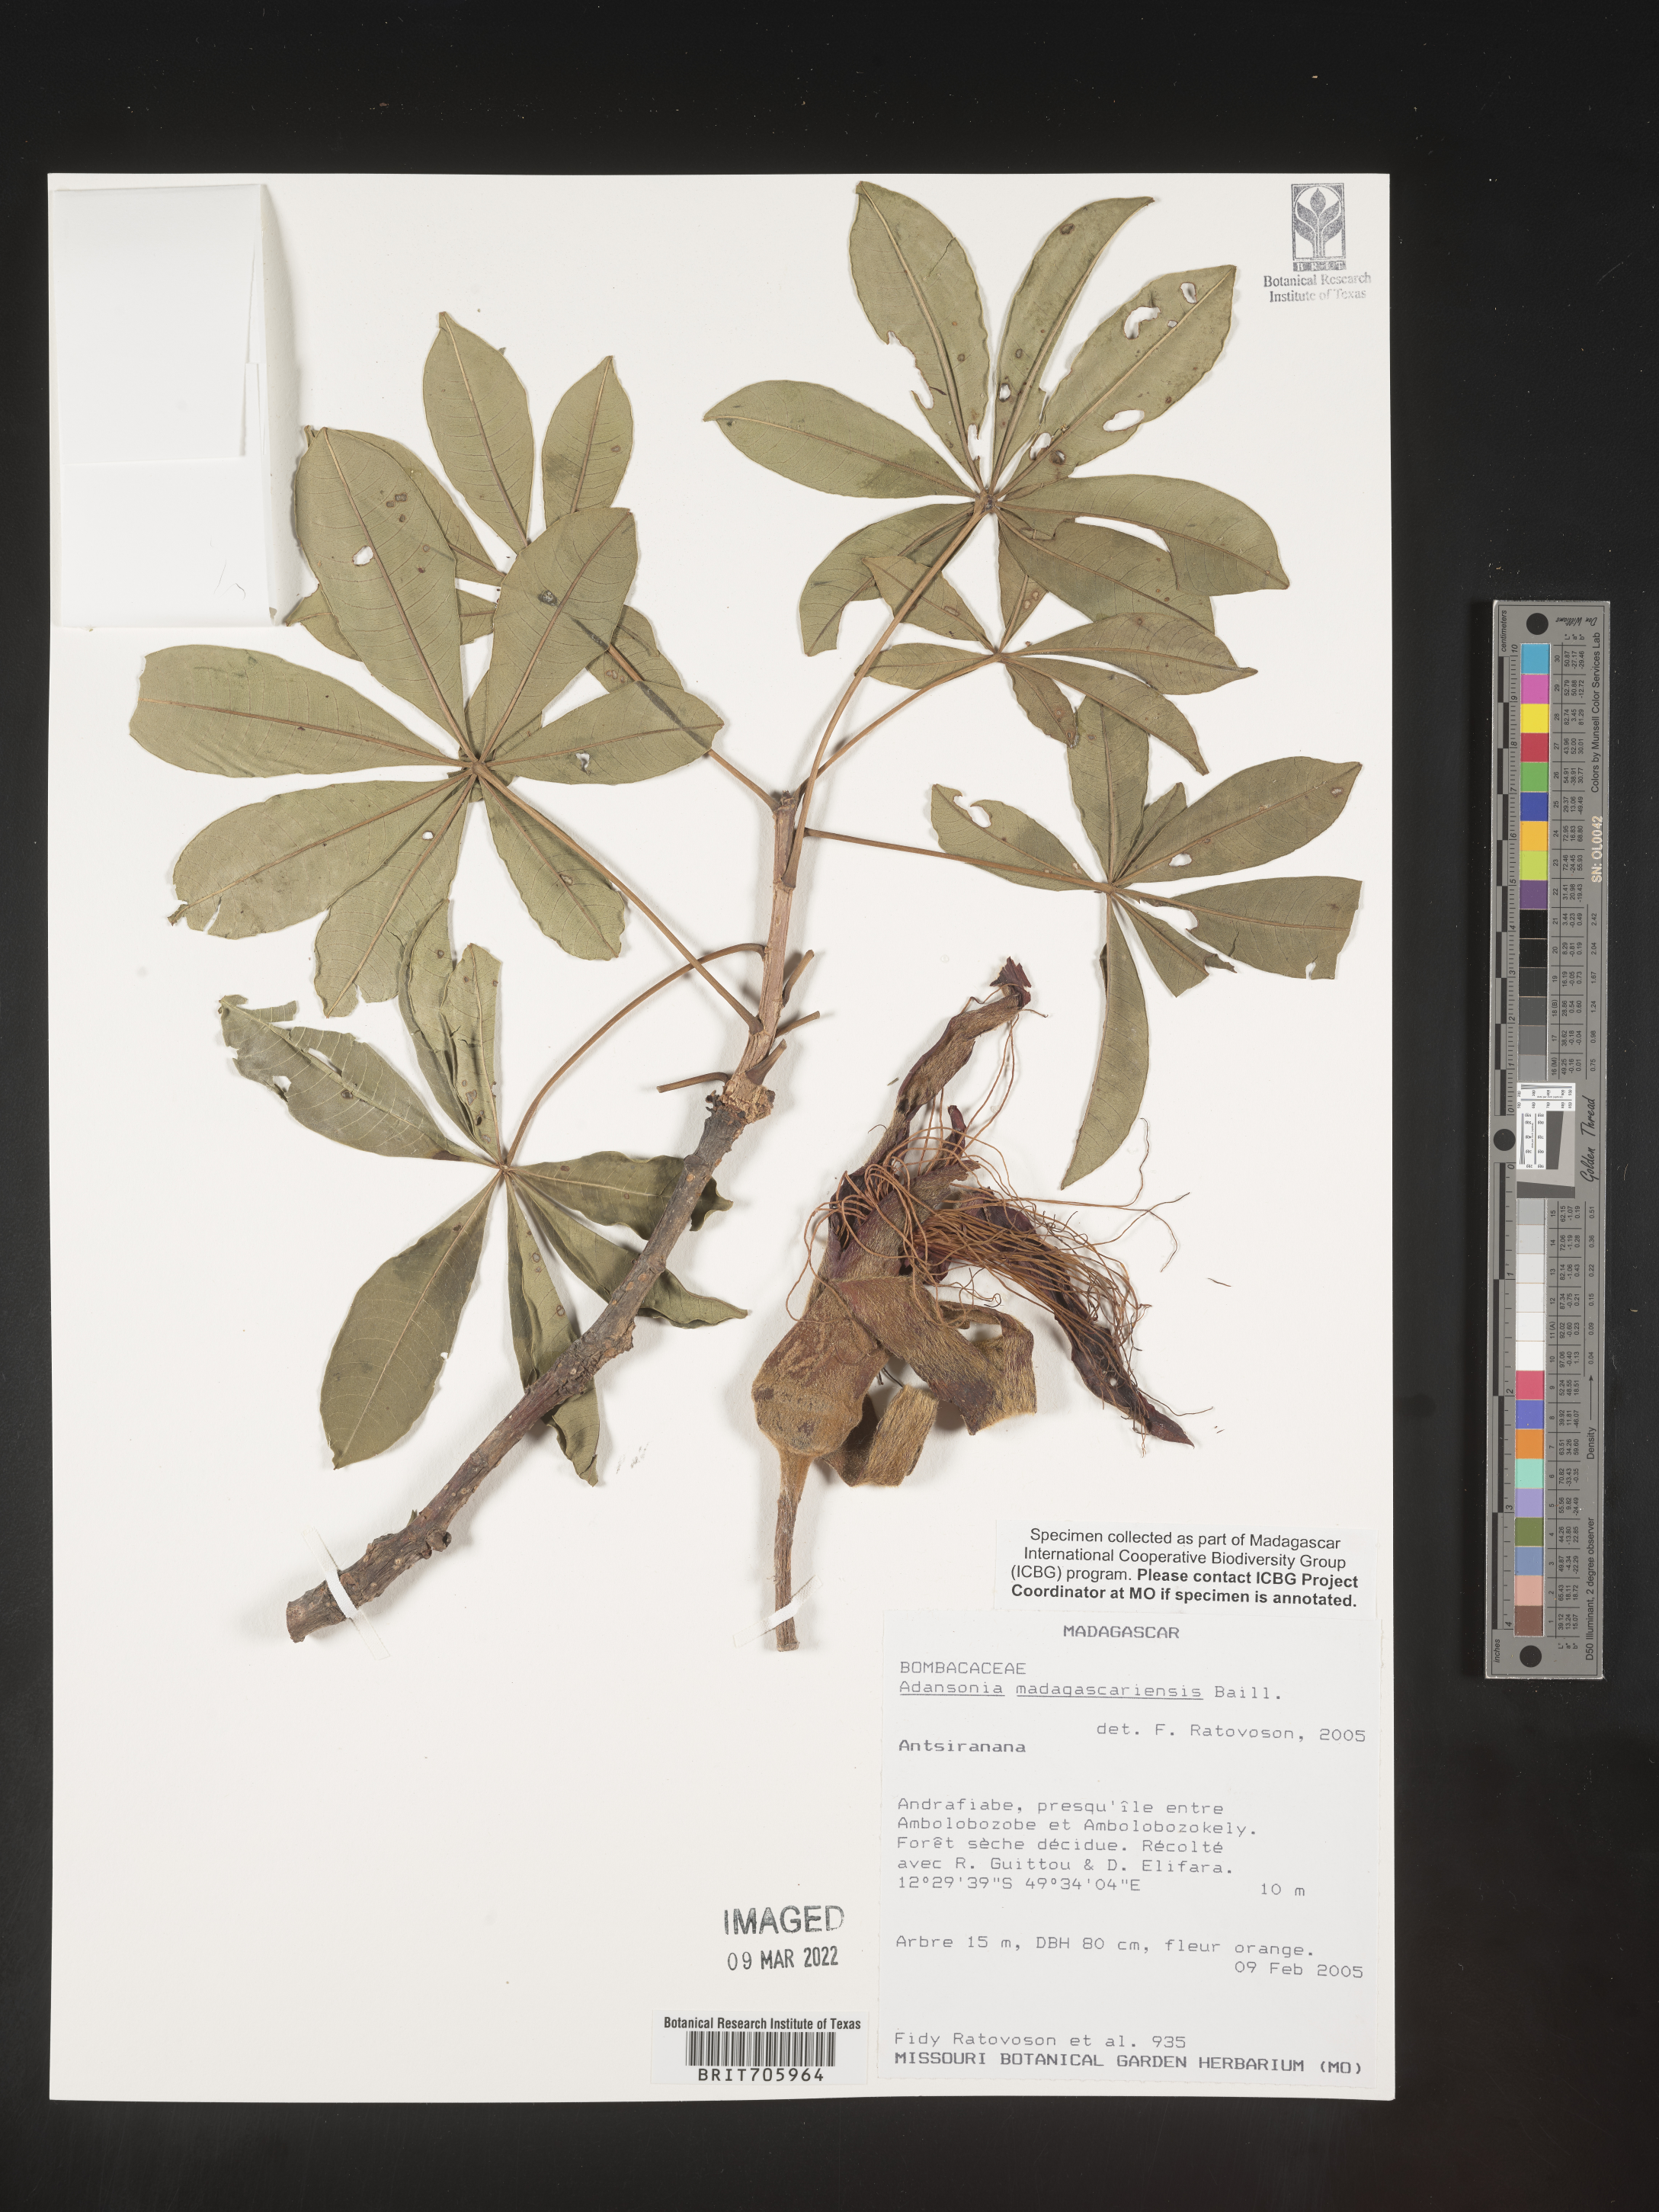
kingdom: Plantae
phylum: Tracheophyta
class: Magnoliopsida
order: Malvales
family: Malvaceae
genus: Adansonia
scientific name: Adansonia
